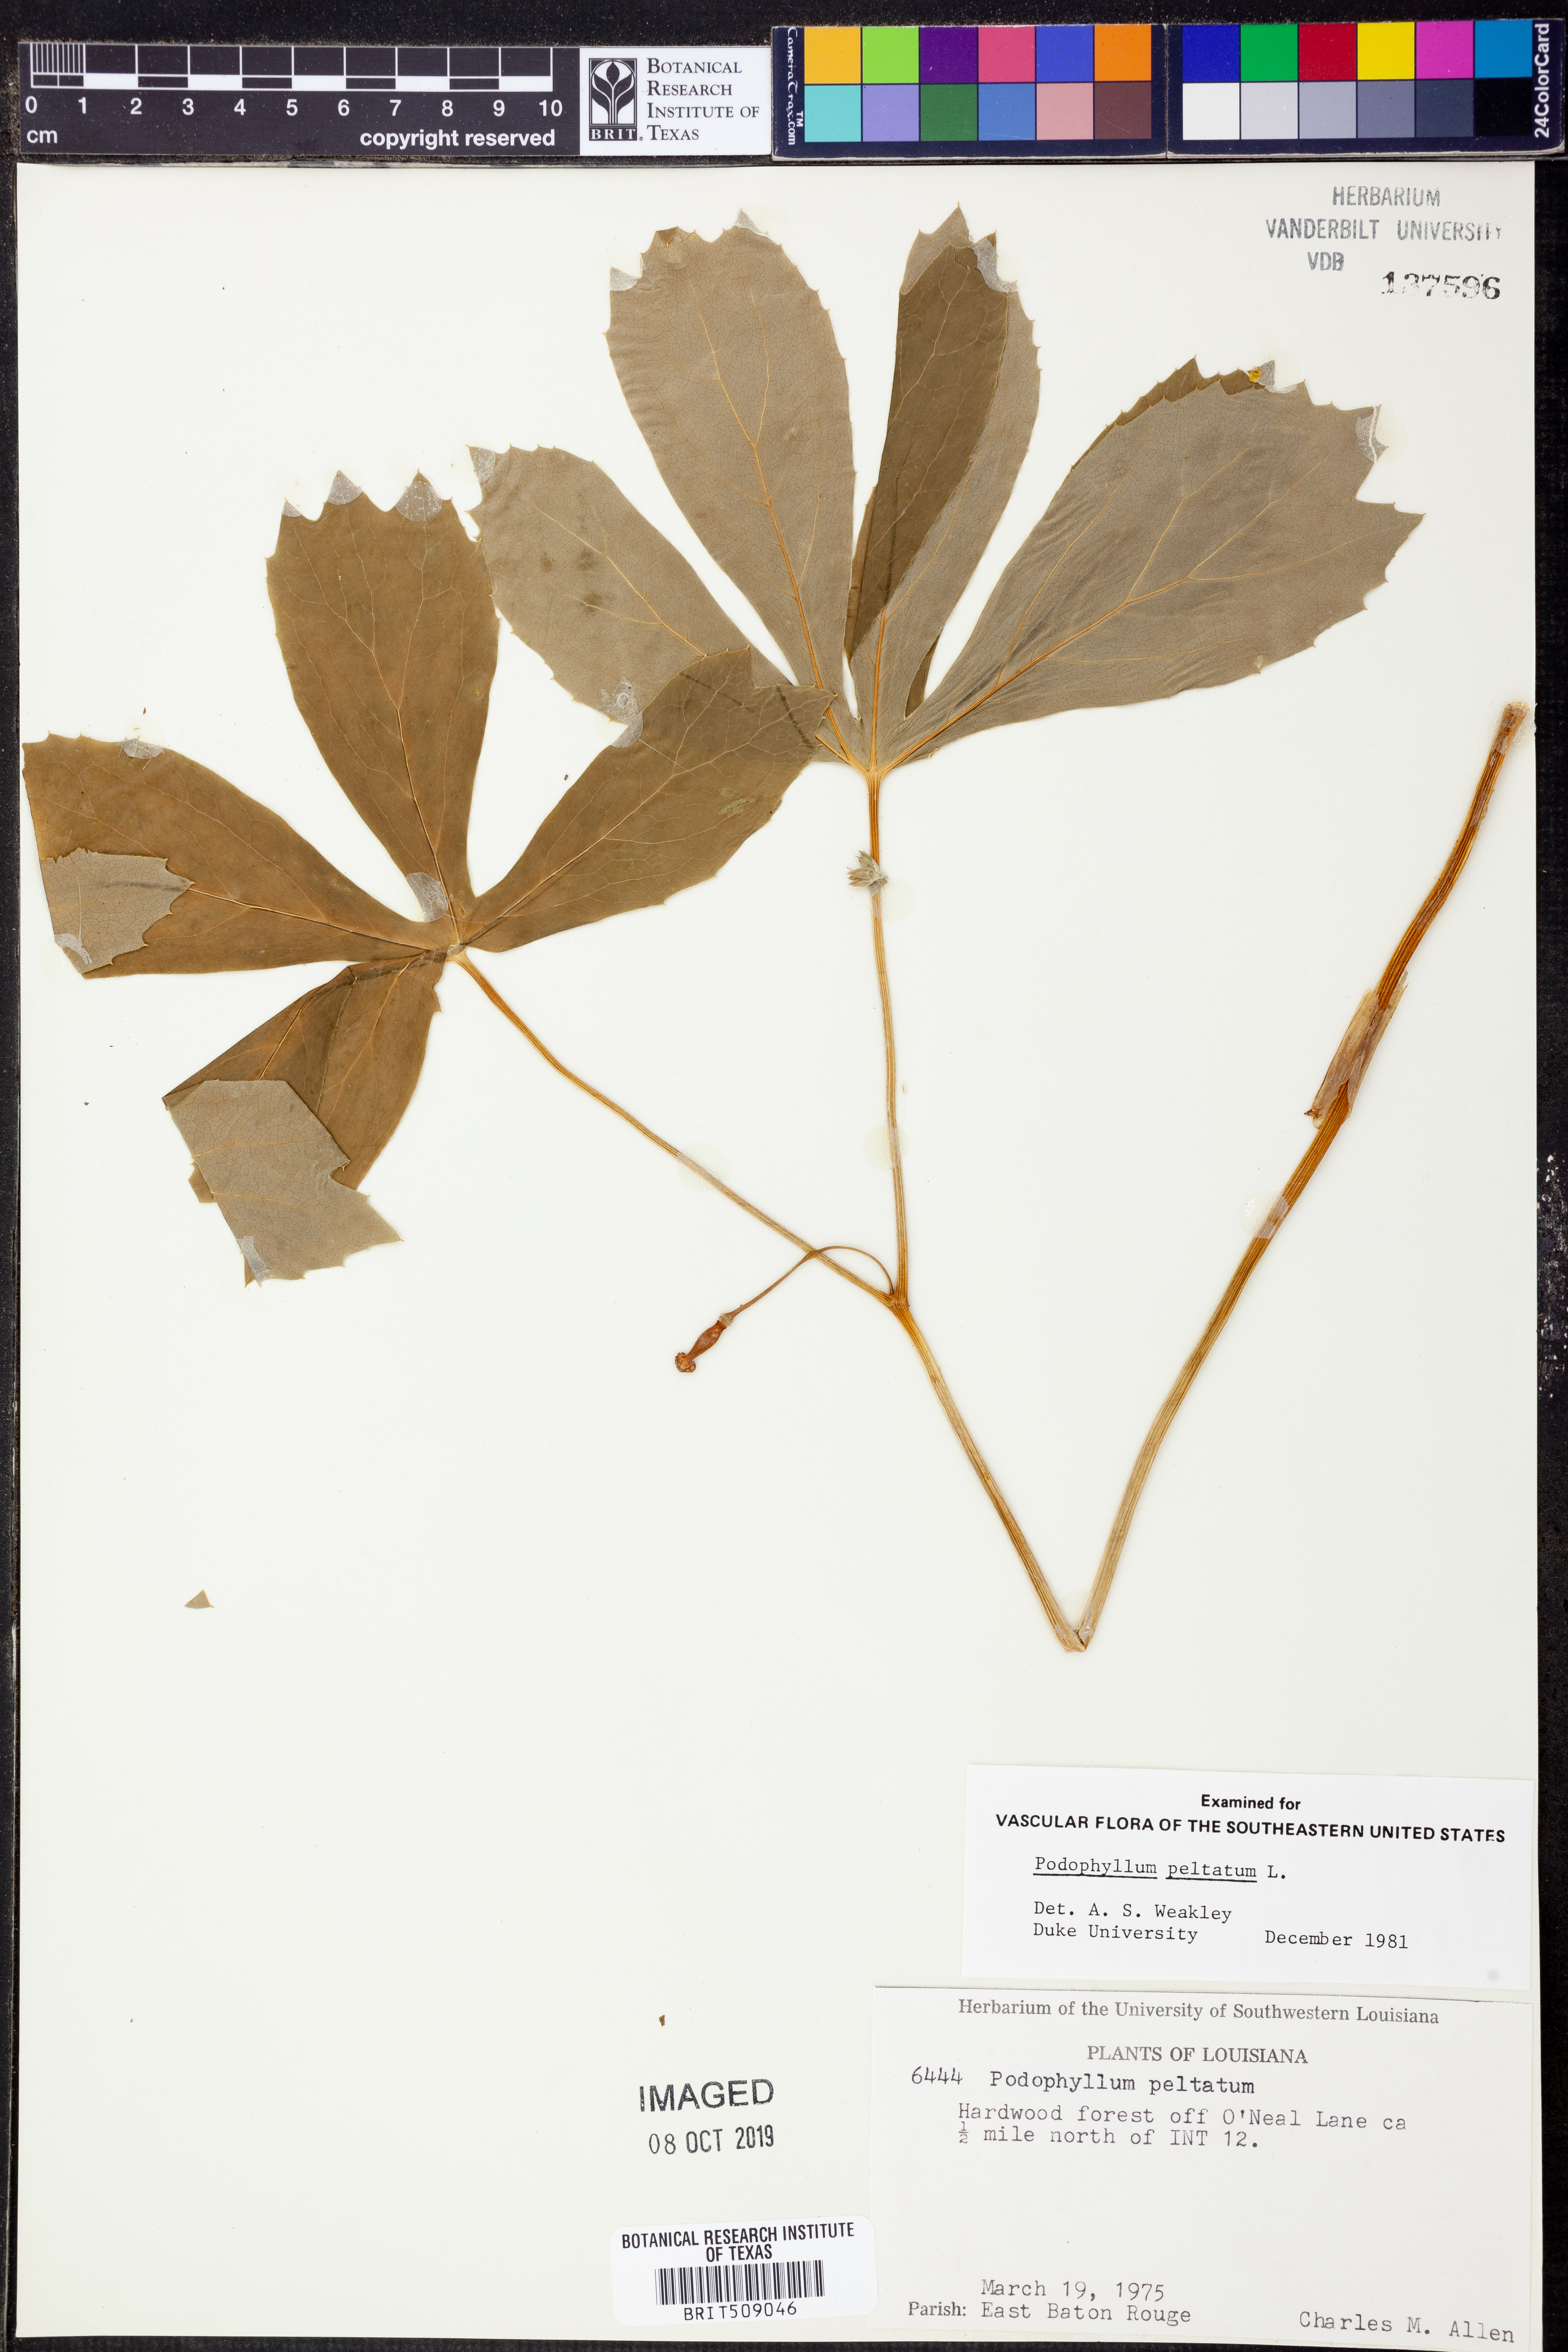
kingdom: Plantae
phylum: Tracheophyta
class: Magnoliopsida
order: Ranunculales
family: Berberidaceae
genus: Podophyllum
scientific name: Podophyllum peltatum
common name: Wild mandrake
